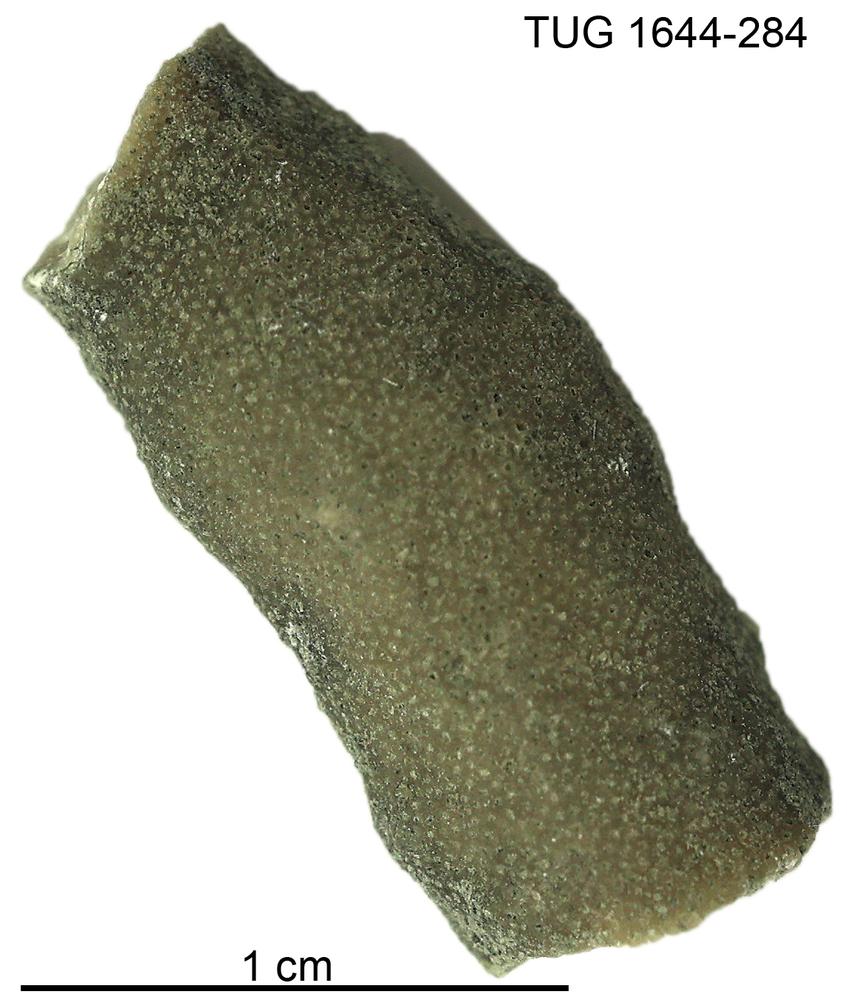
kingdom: Animalia
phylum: Bryozoa
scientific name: Bryozoa
